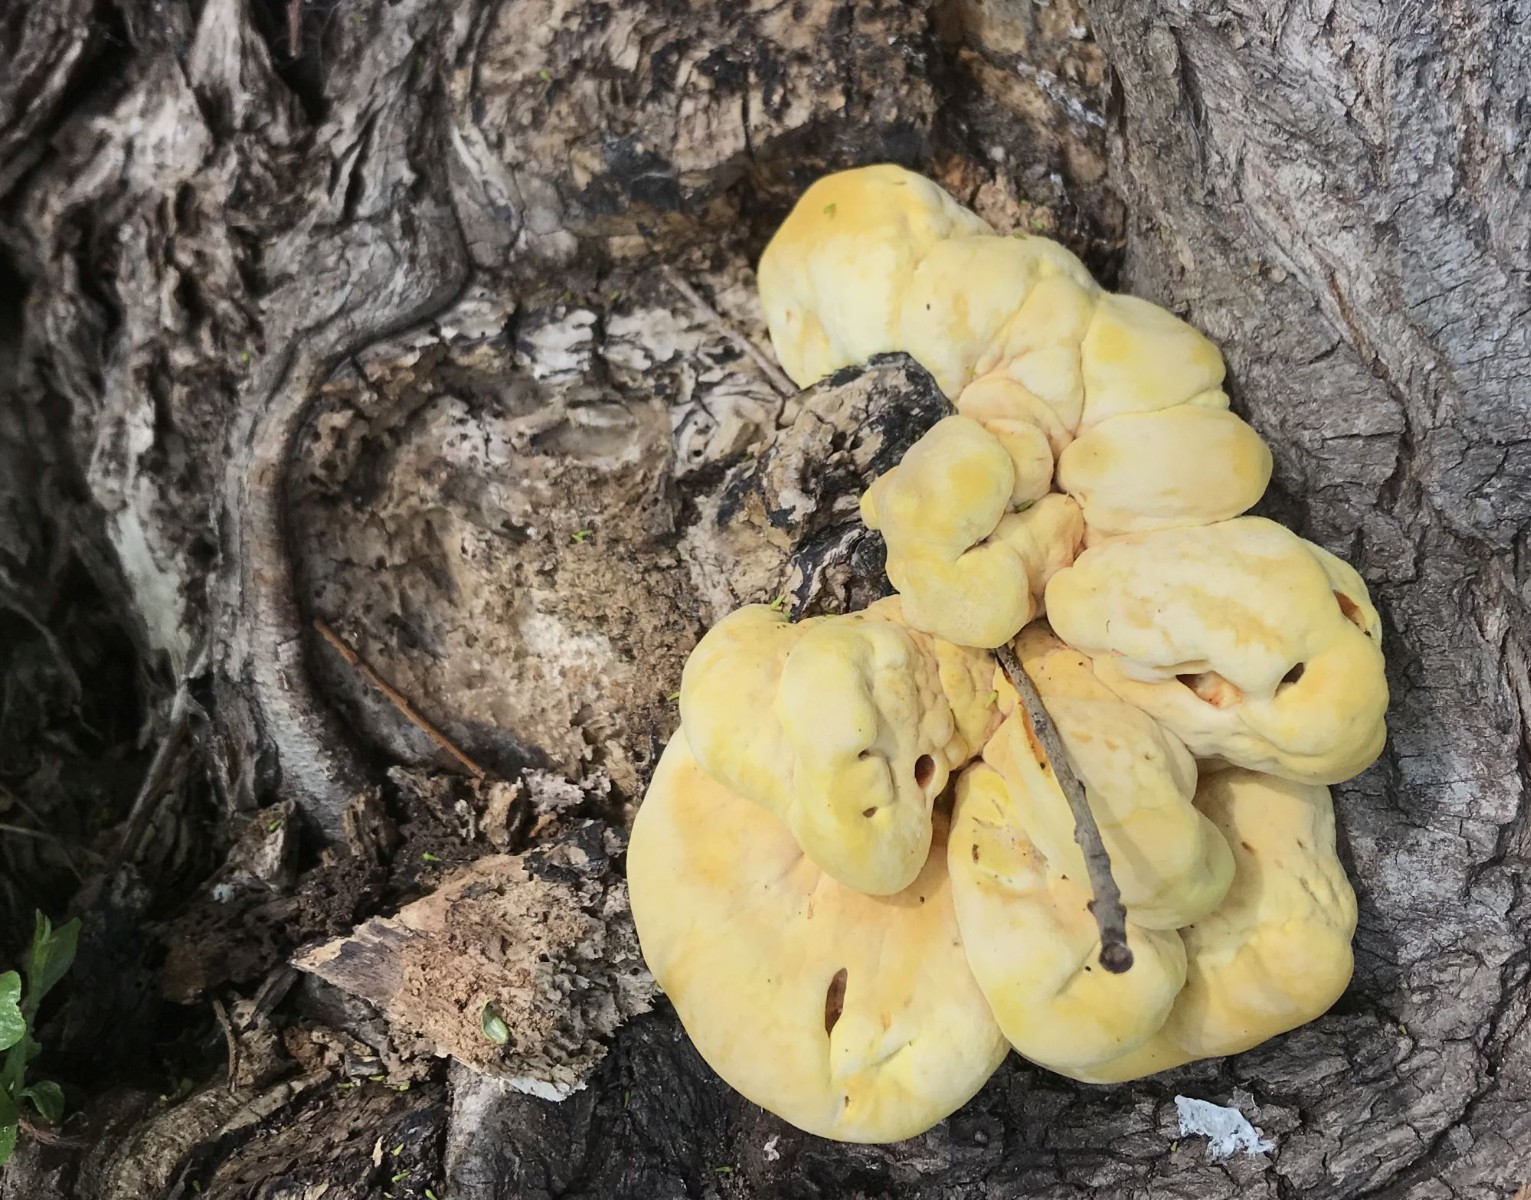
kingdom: Fungi
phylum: Basidiomycota
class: Agaricomycetes
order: Polyporales
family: Laetiporaceae
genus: Laetiporus
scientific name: Laetiporus sulphureus
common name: svovlporesvamp
